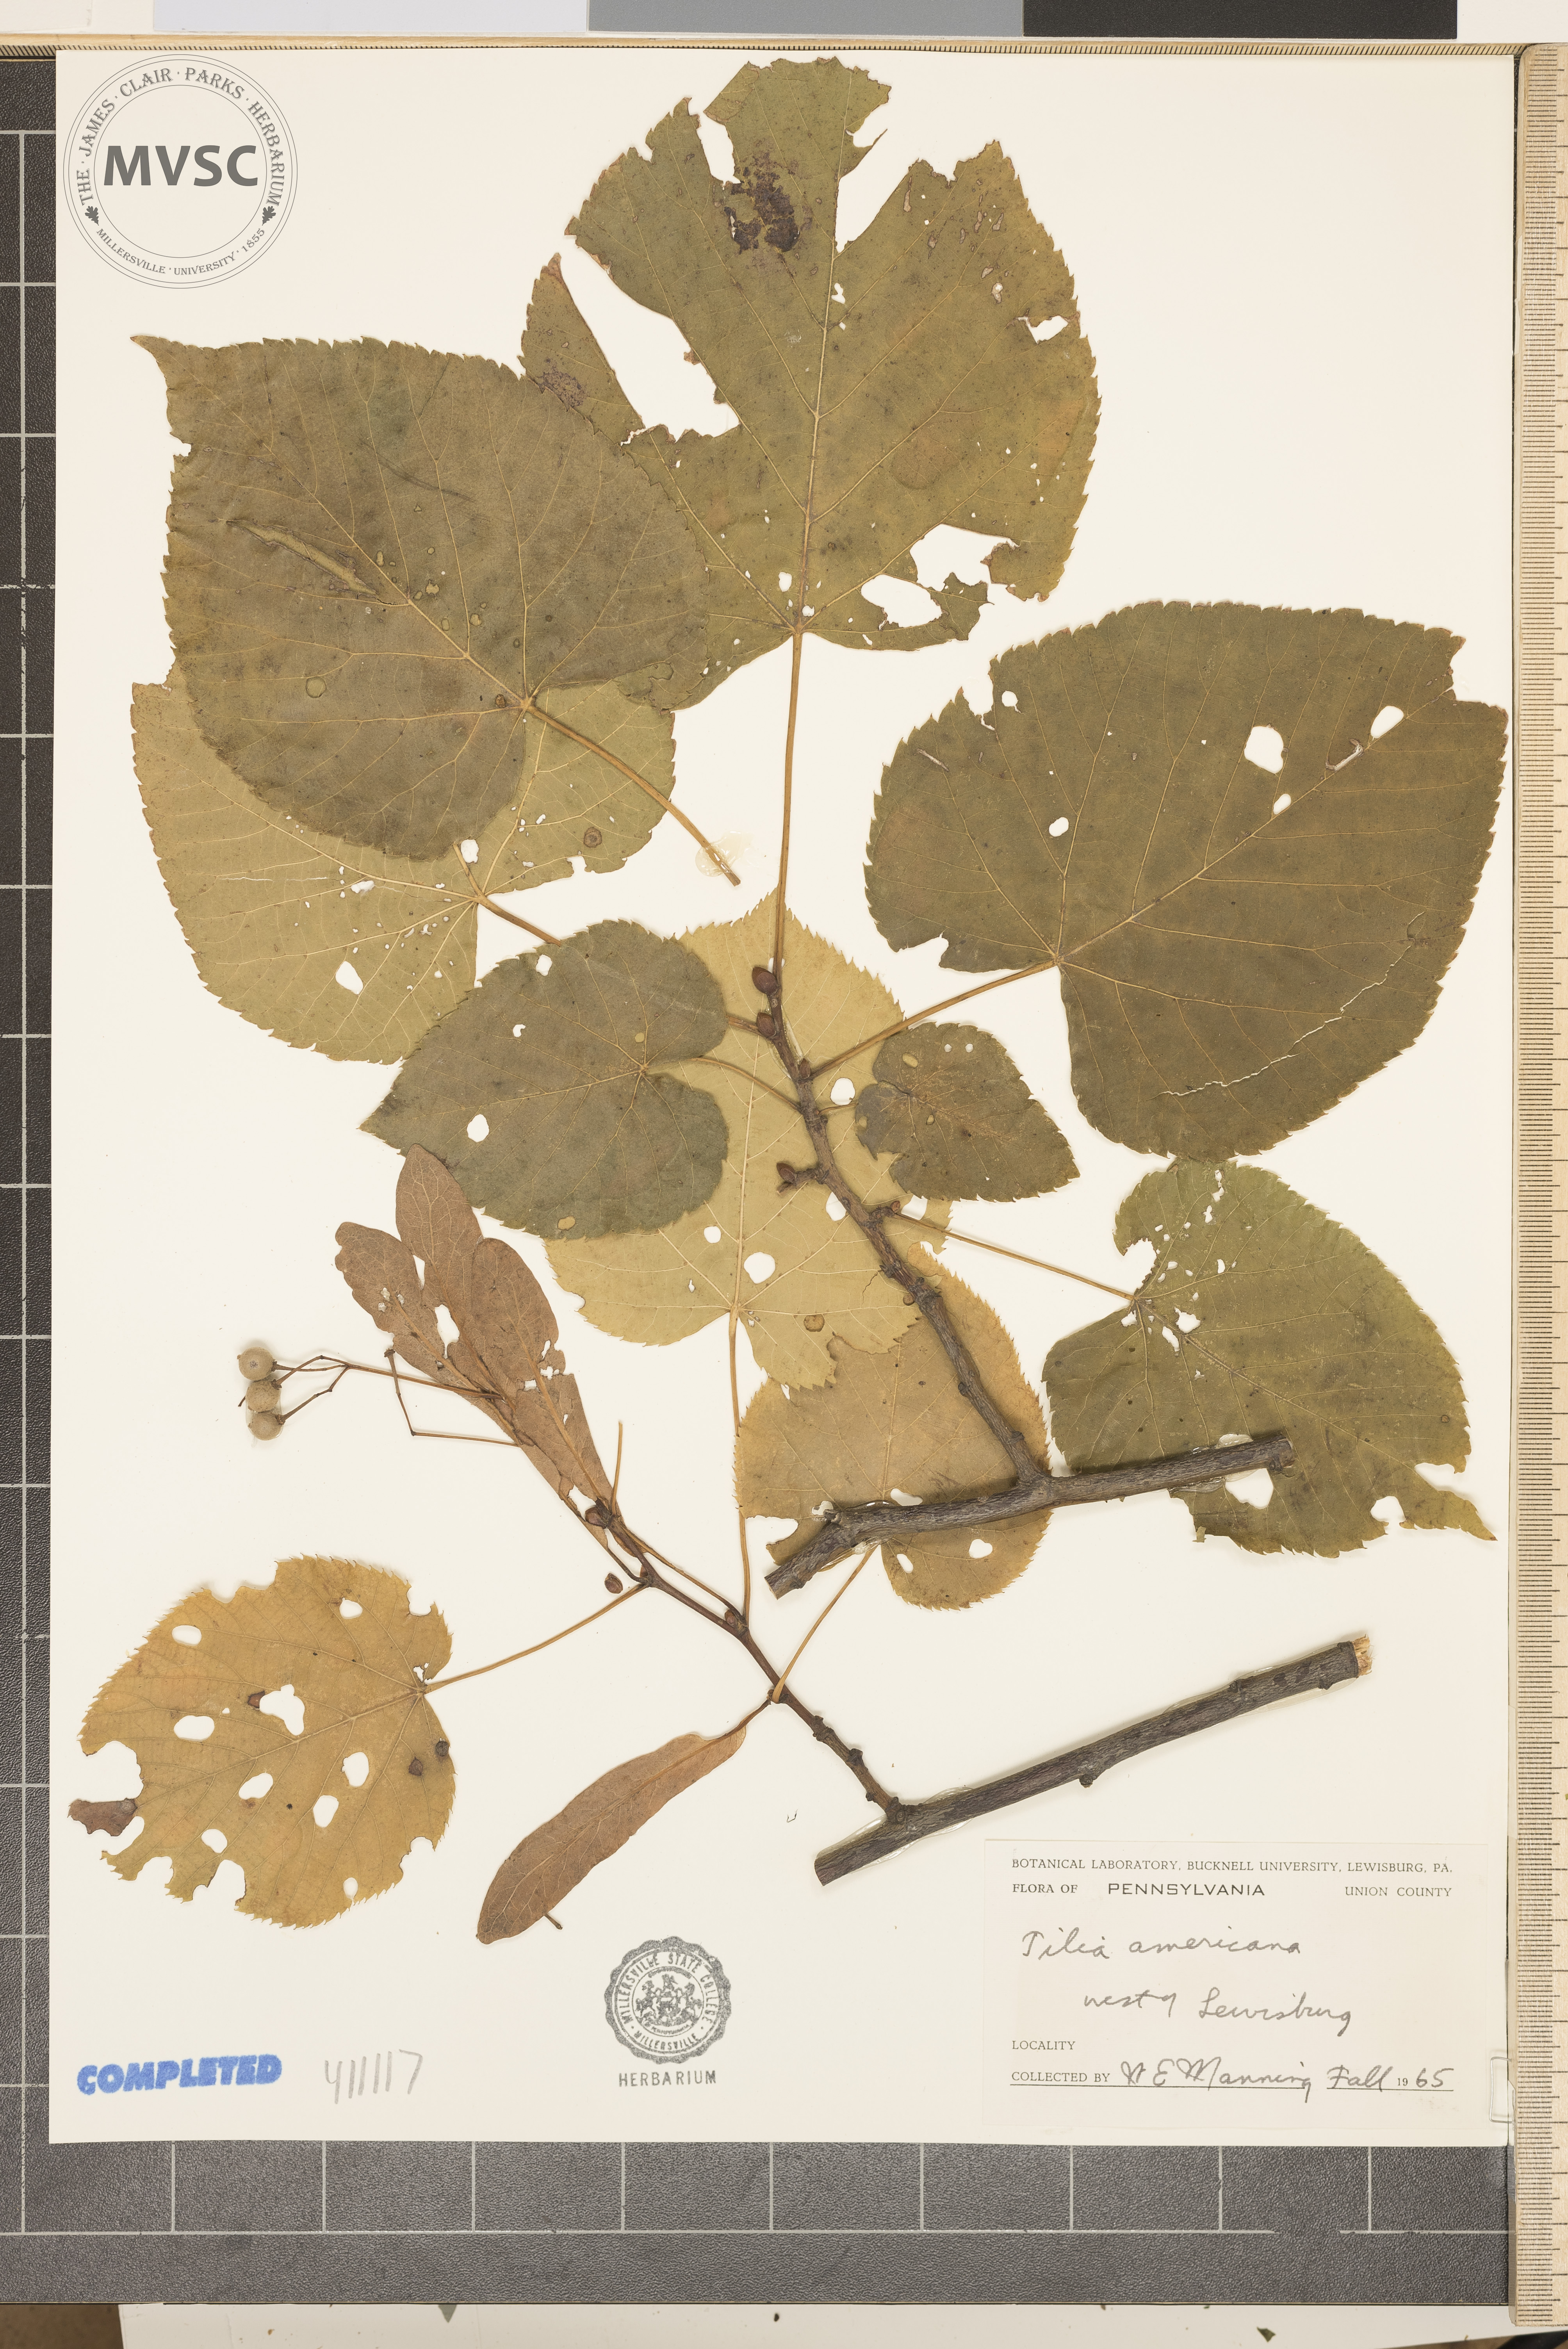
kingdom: Plantae
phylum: Tracheophyta
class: Magnoliopsida
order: Malvales
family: Malvaceae
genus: Tilia
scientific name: Tilia americana
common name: American basswood
